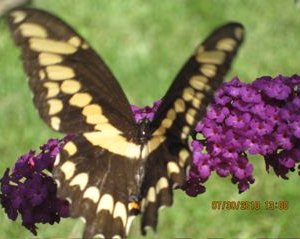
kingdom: Animalia
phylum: Arthropoda
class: Insecta
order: Lepidoptera
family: Papilionidae
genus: Papilio
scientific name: Papilio cresphontes
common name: Eastern Giant Swallowtail
